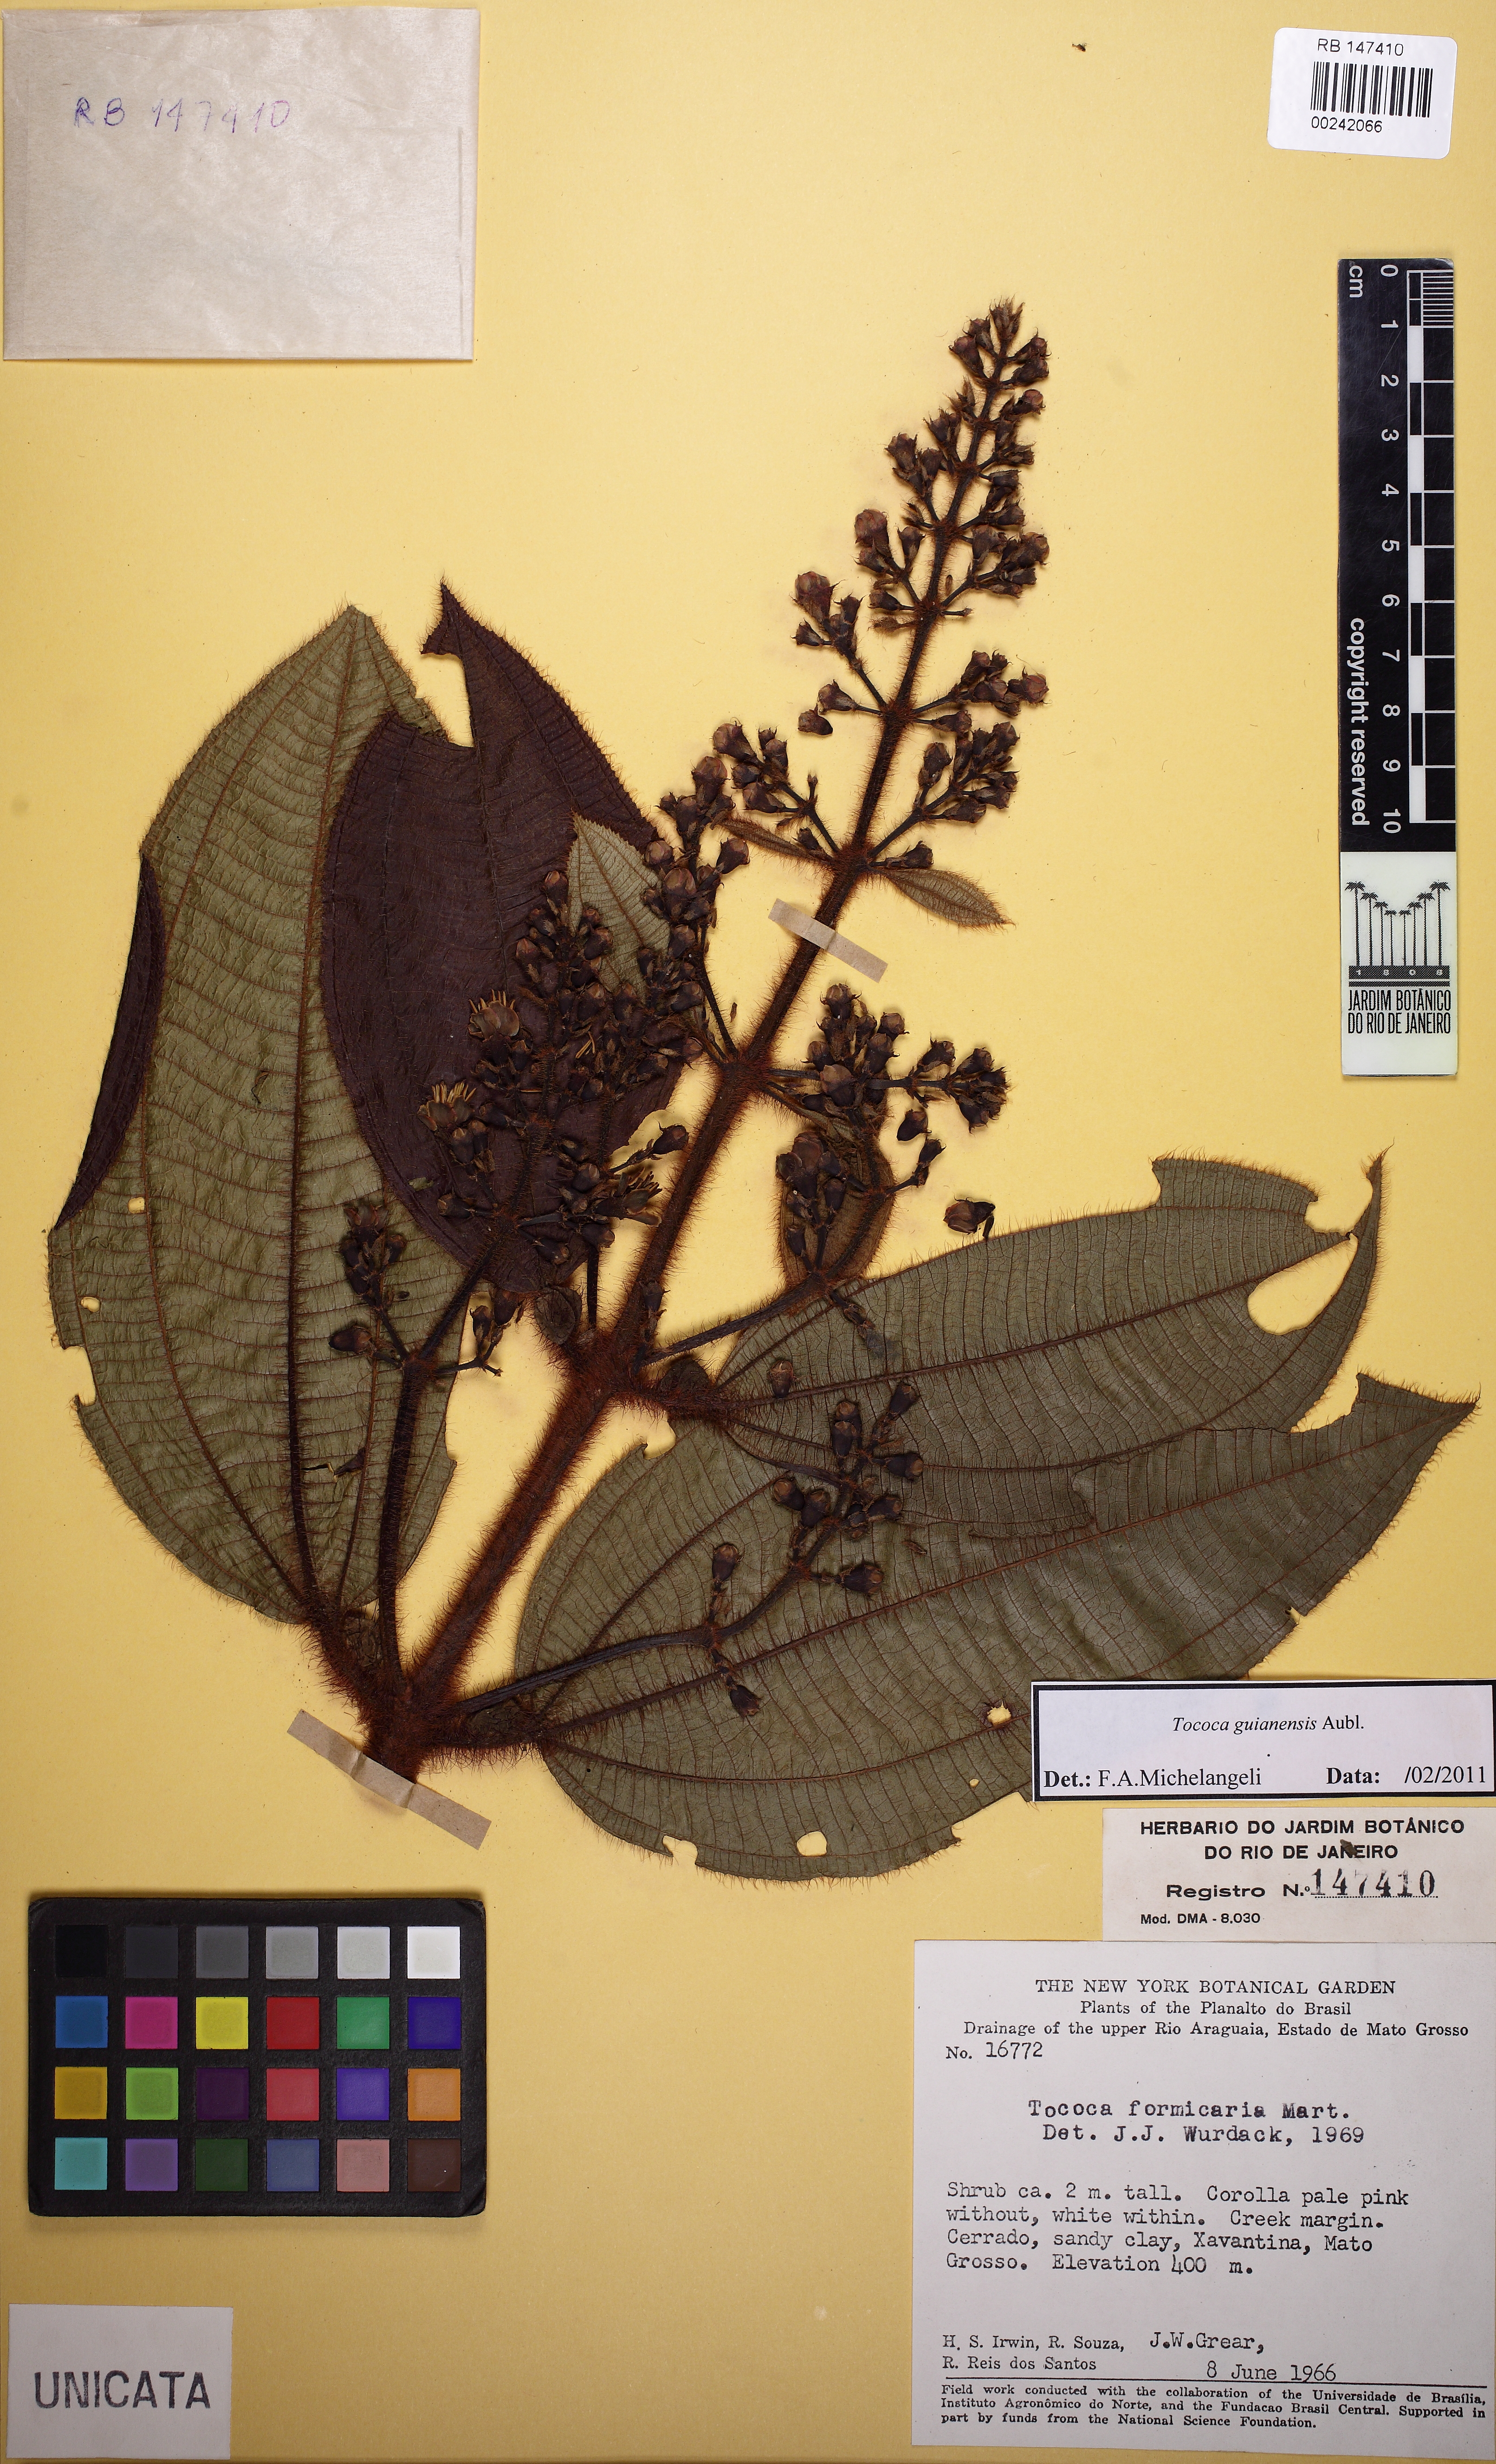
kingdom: Plantae
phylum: Tracheophyta
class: Magnoliopsida
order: Myrtales
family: Melastomataceae
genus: Miconia
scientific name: Miconia tococa
